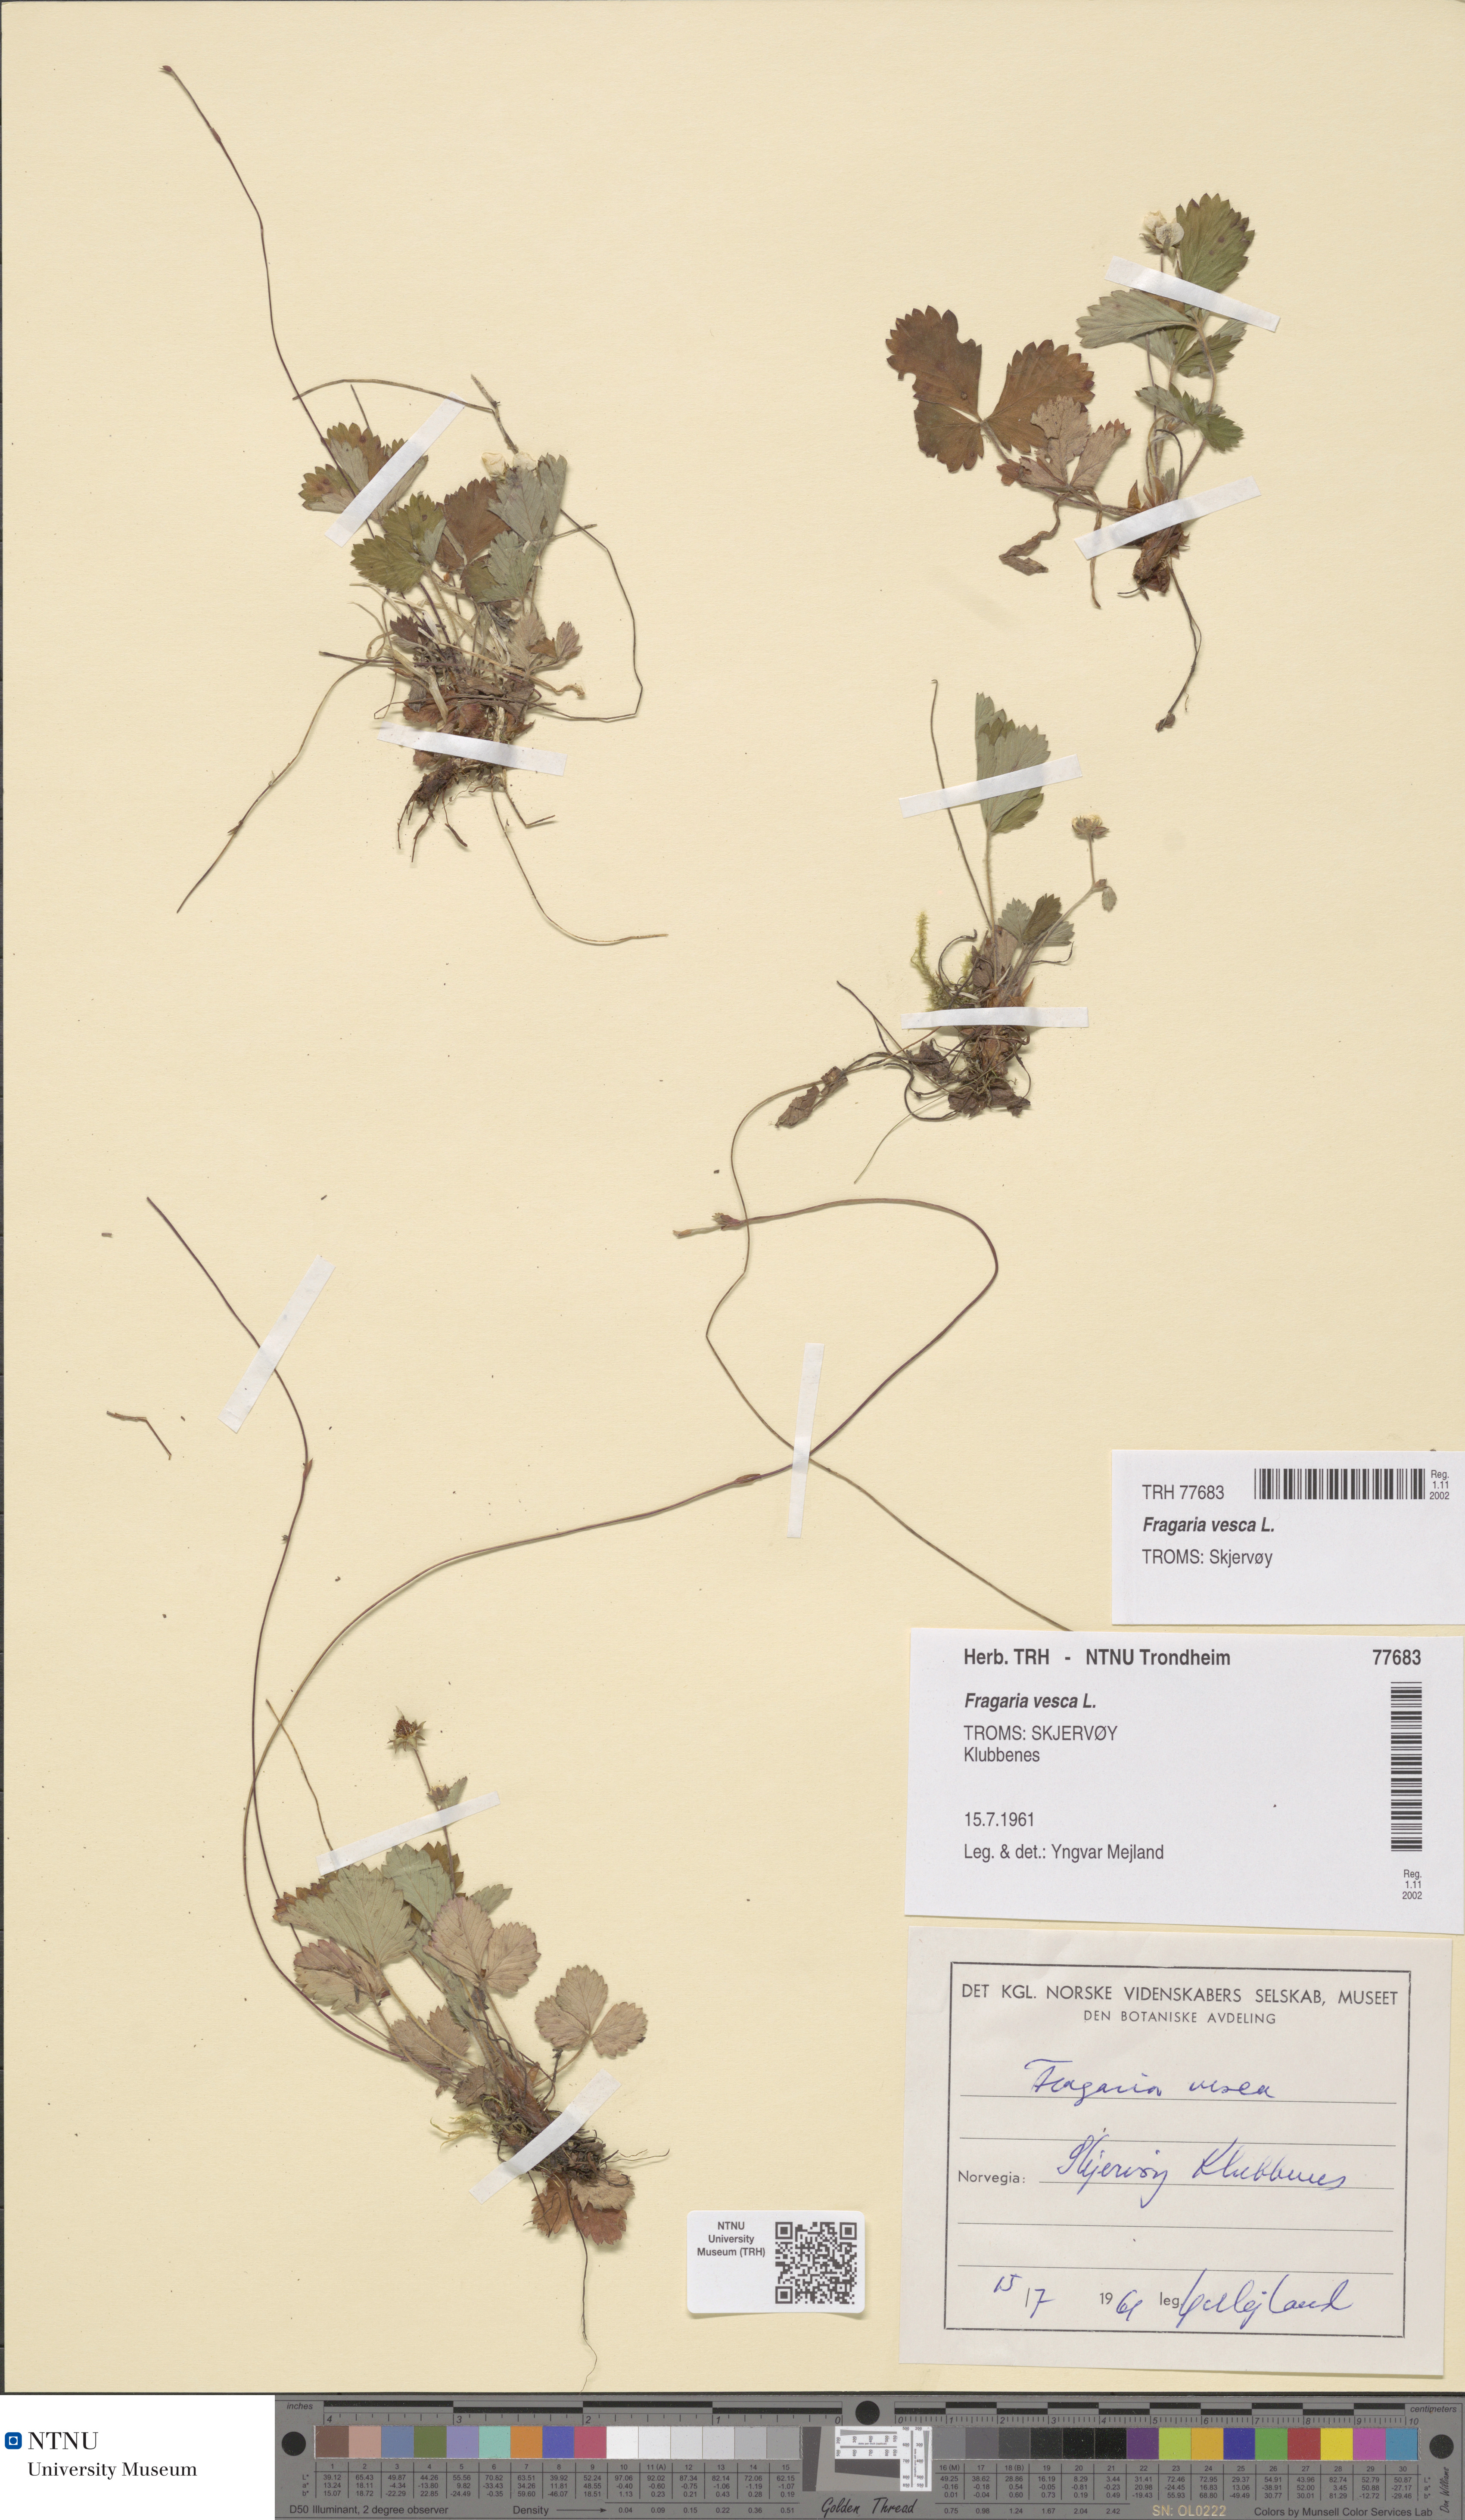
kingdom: Plantae
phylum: Tracheophyta
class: Magnoliopsida
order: Rosales
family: Rosaceae
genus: Fragaria
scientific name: Fragaria vesca
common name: Wild strawberry
